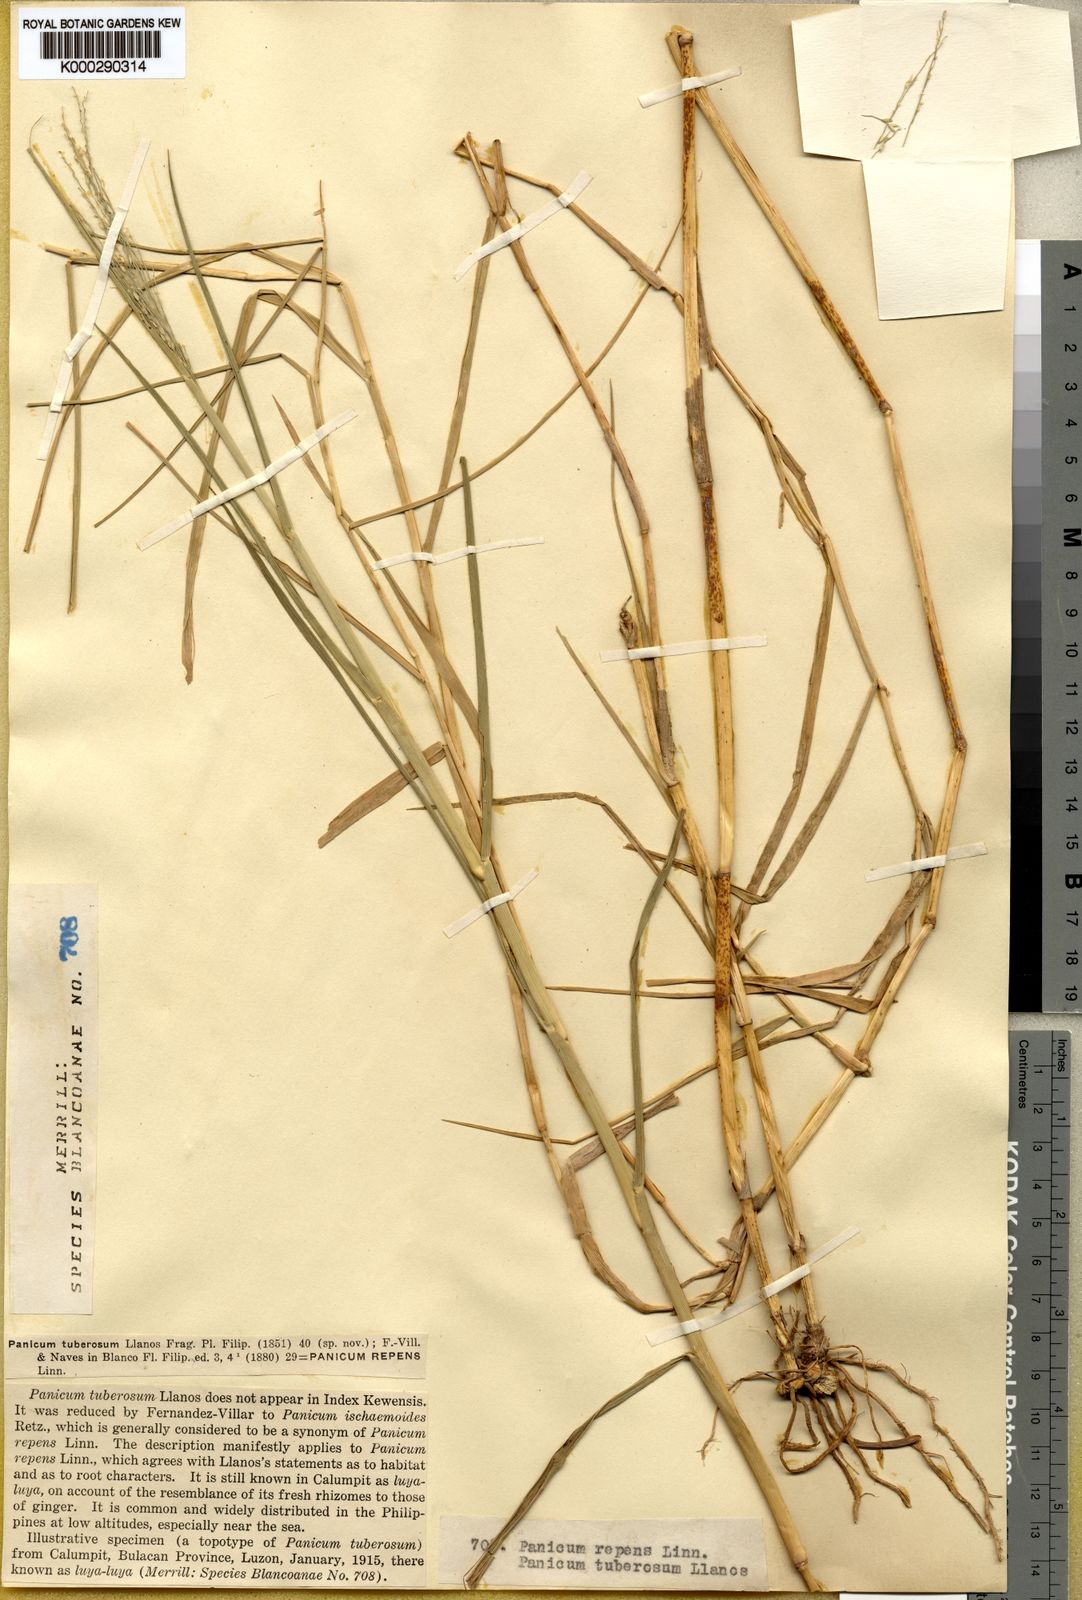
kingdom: Plantae
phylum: Tracheophyta
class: Liliopsida
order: Poales
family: Poaceae
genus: Panicum
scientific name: Panicum repens
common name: Torpedo grass
